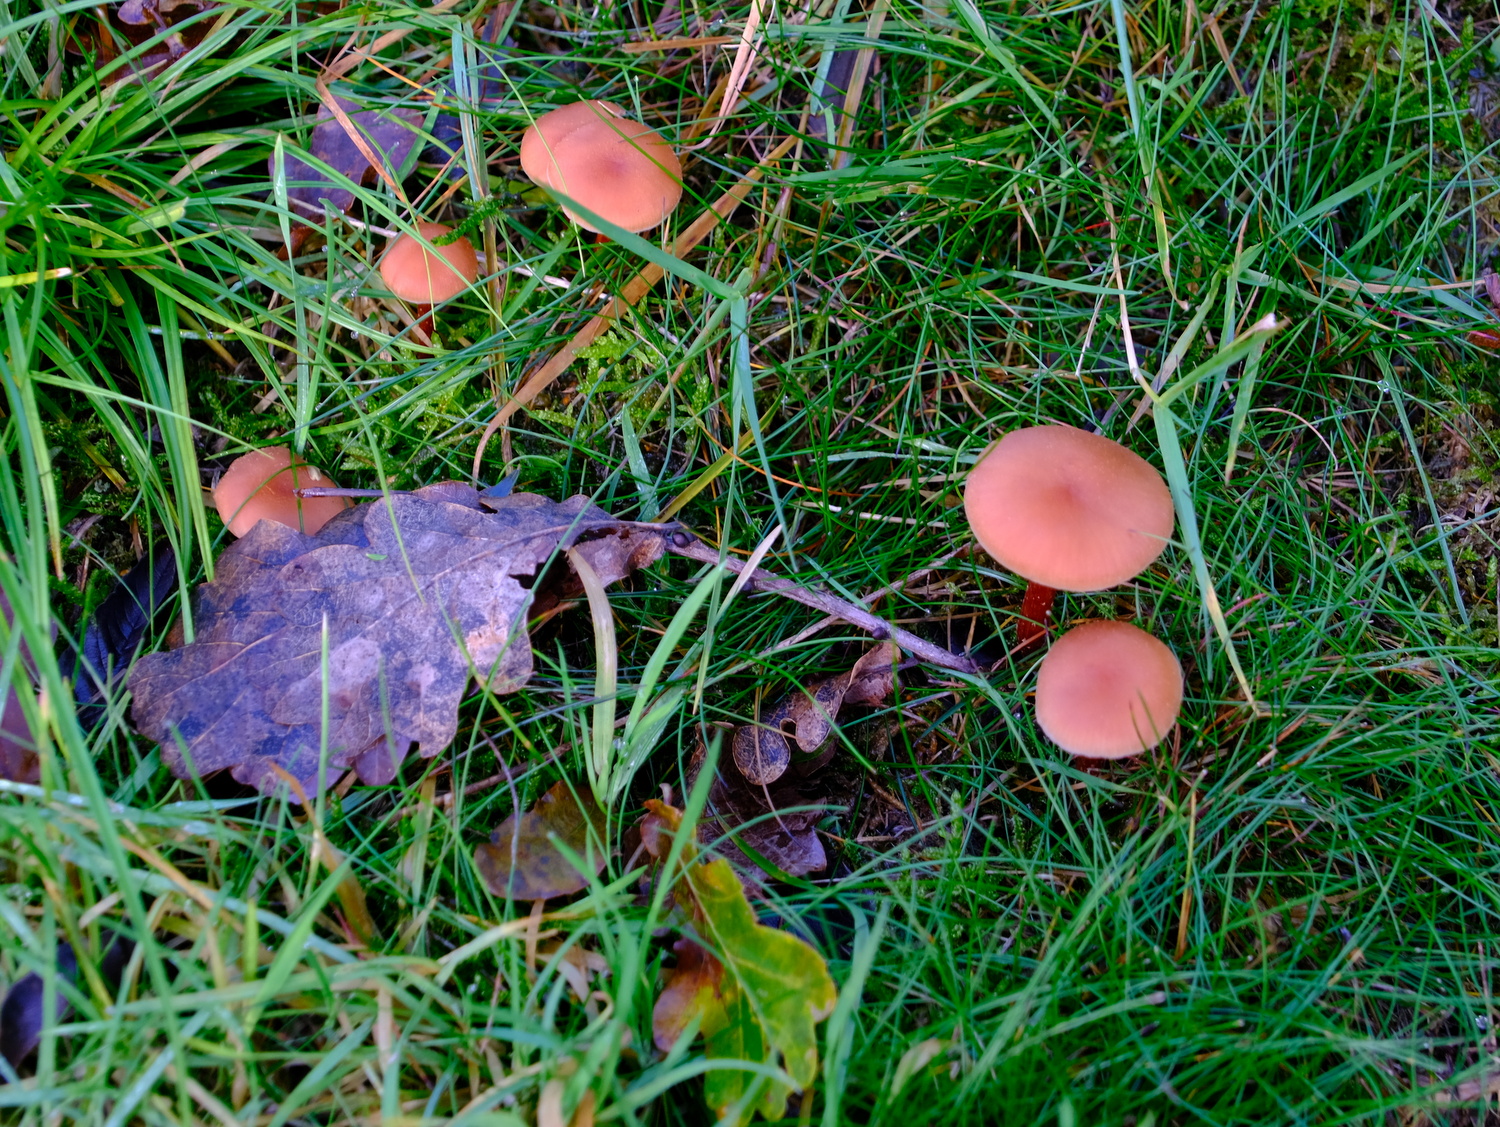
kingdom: Fungi
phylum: Basidiomycota
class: Agaricomycetes
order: Agaricales
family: Hydnangiaceae
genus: Laccaria
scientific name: Laccaria proxima
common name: stor ametysthat
